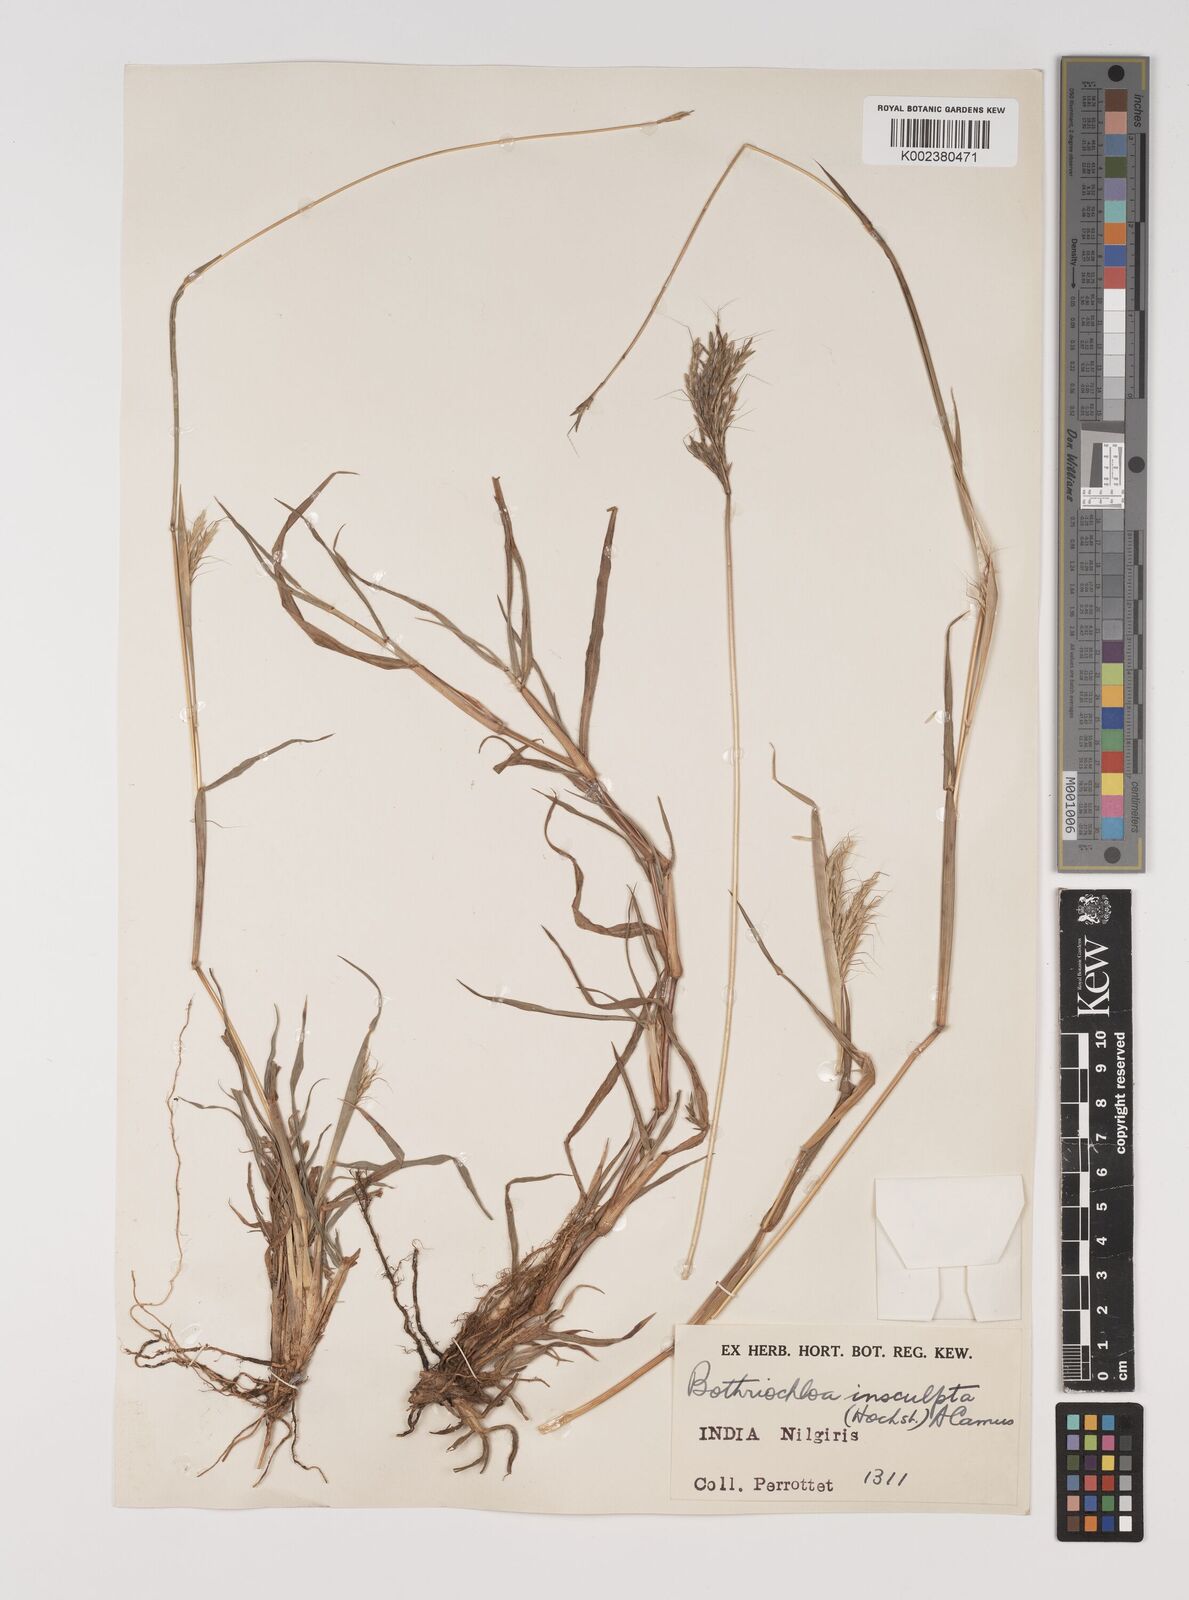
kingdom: Plantae
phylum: Tracheophyta
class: Liliopsida
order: Poales
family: Poaceae
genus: Bothriochloa
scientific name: Bothriochloa insculpta
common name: Creeping-bluegrass
